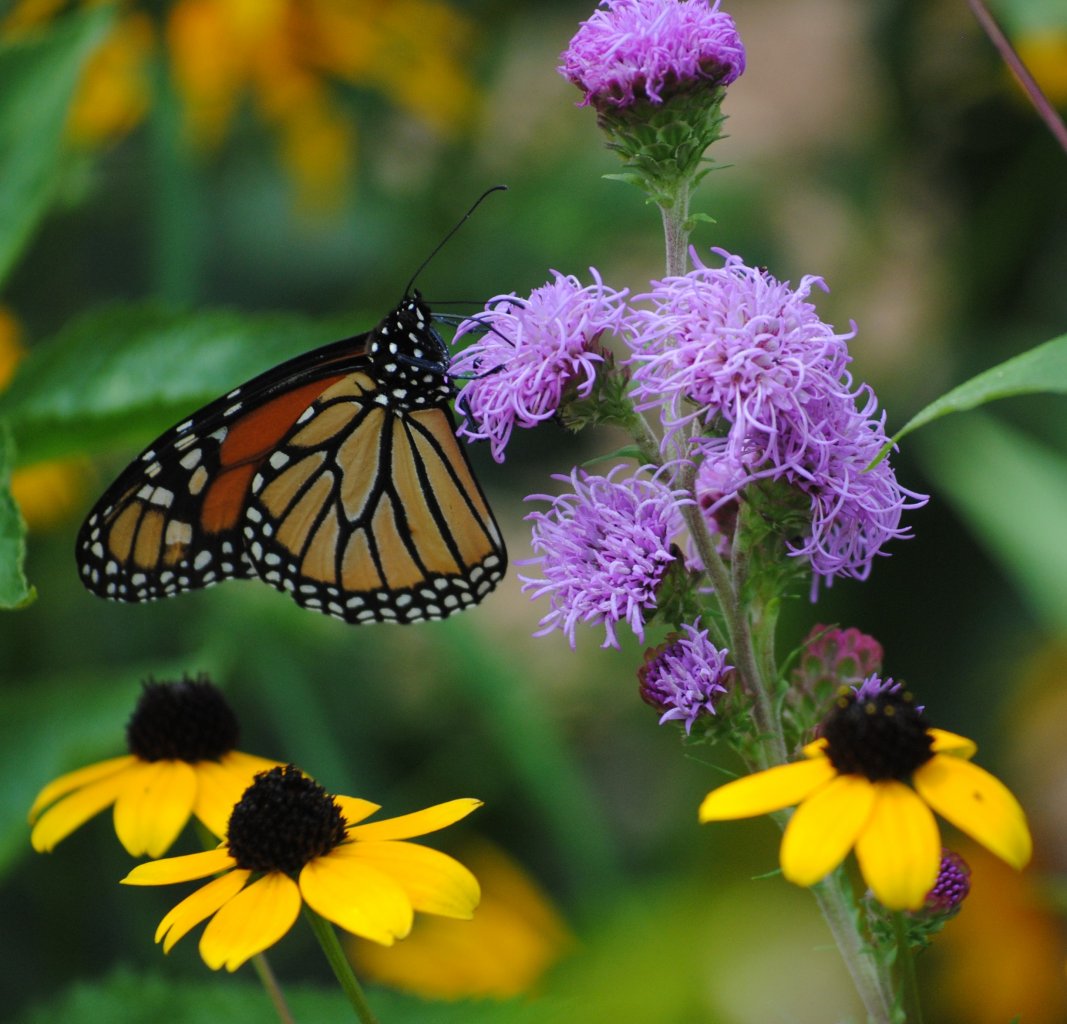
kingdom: Animalia
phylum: Arthropoda
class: Insecta
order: Lepidoptera
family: Nymphalidae
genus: Danaus
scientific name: Danaus plexippus
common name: Monarch
